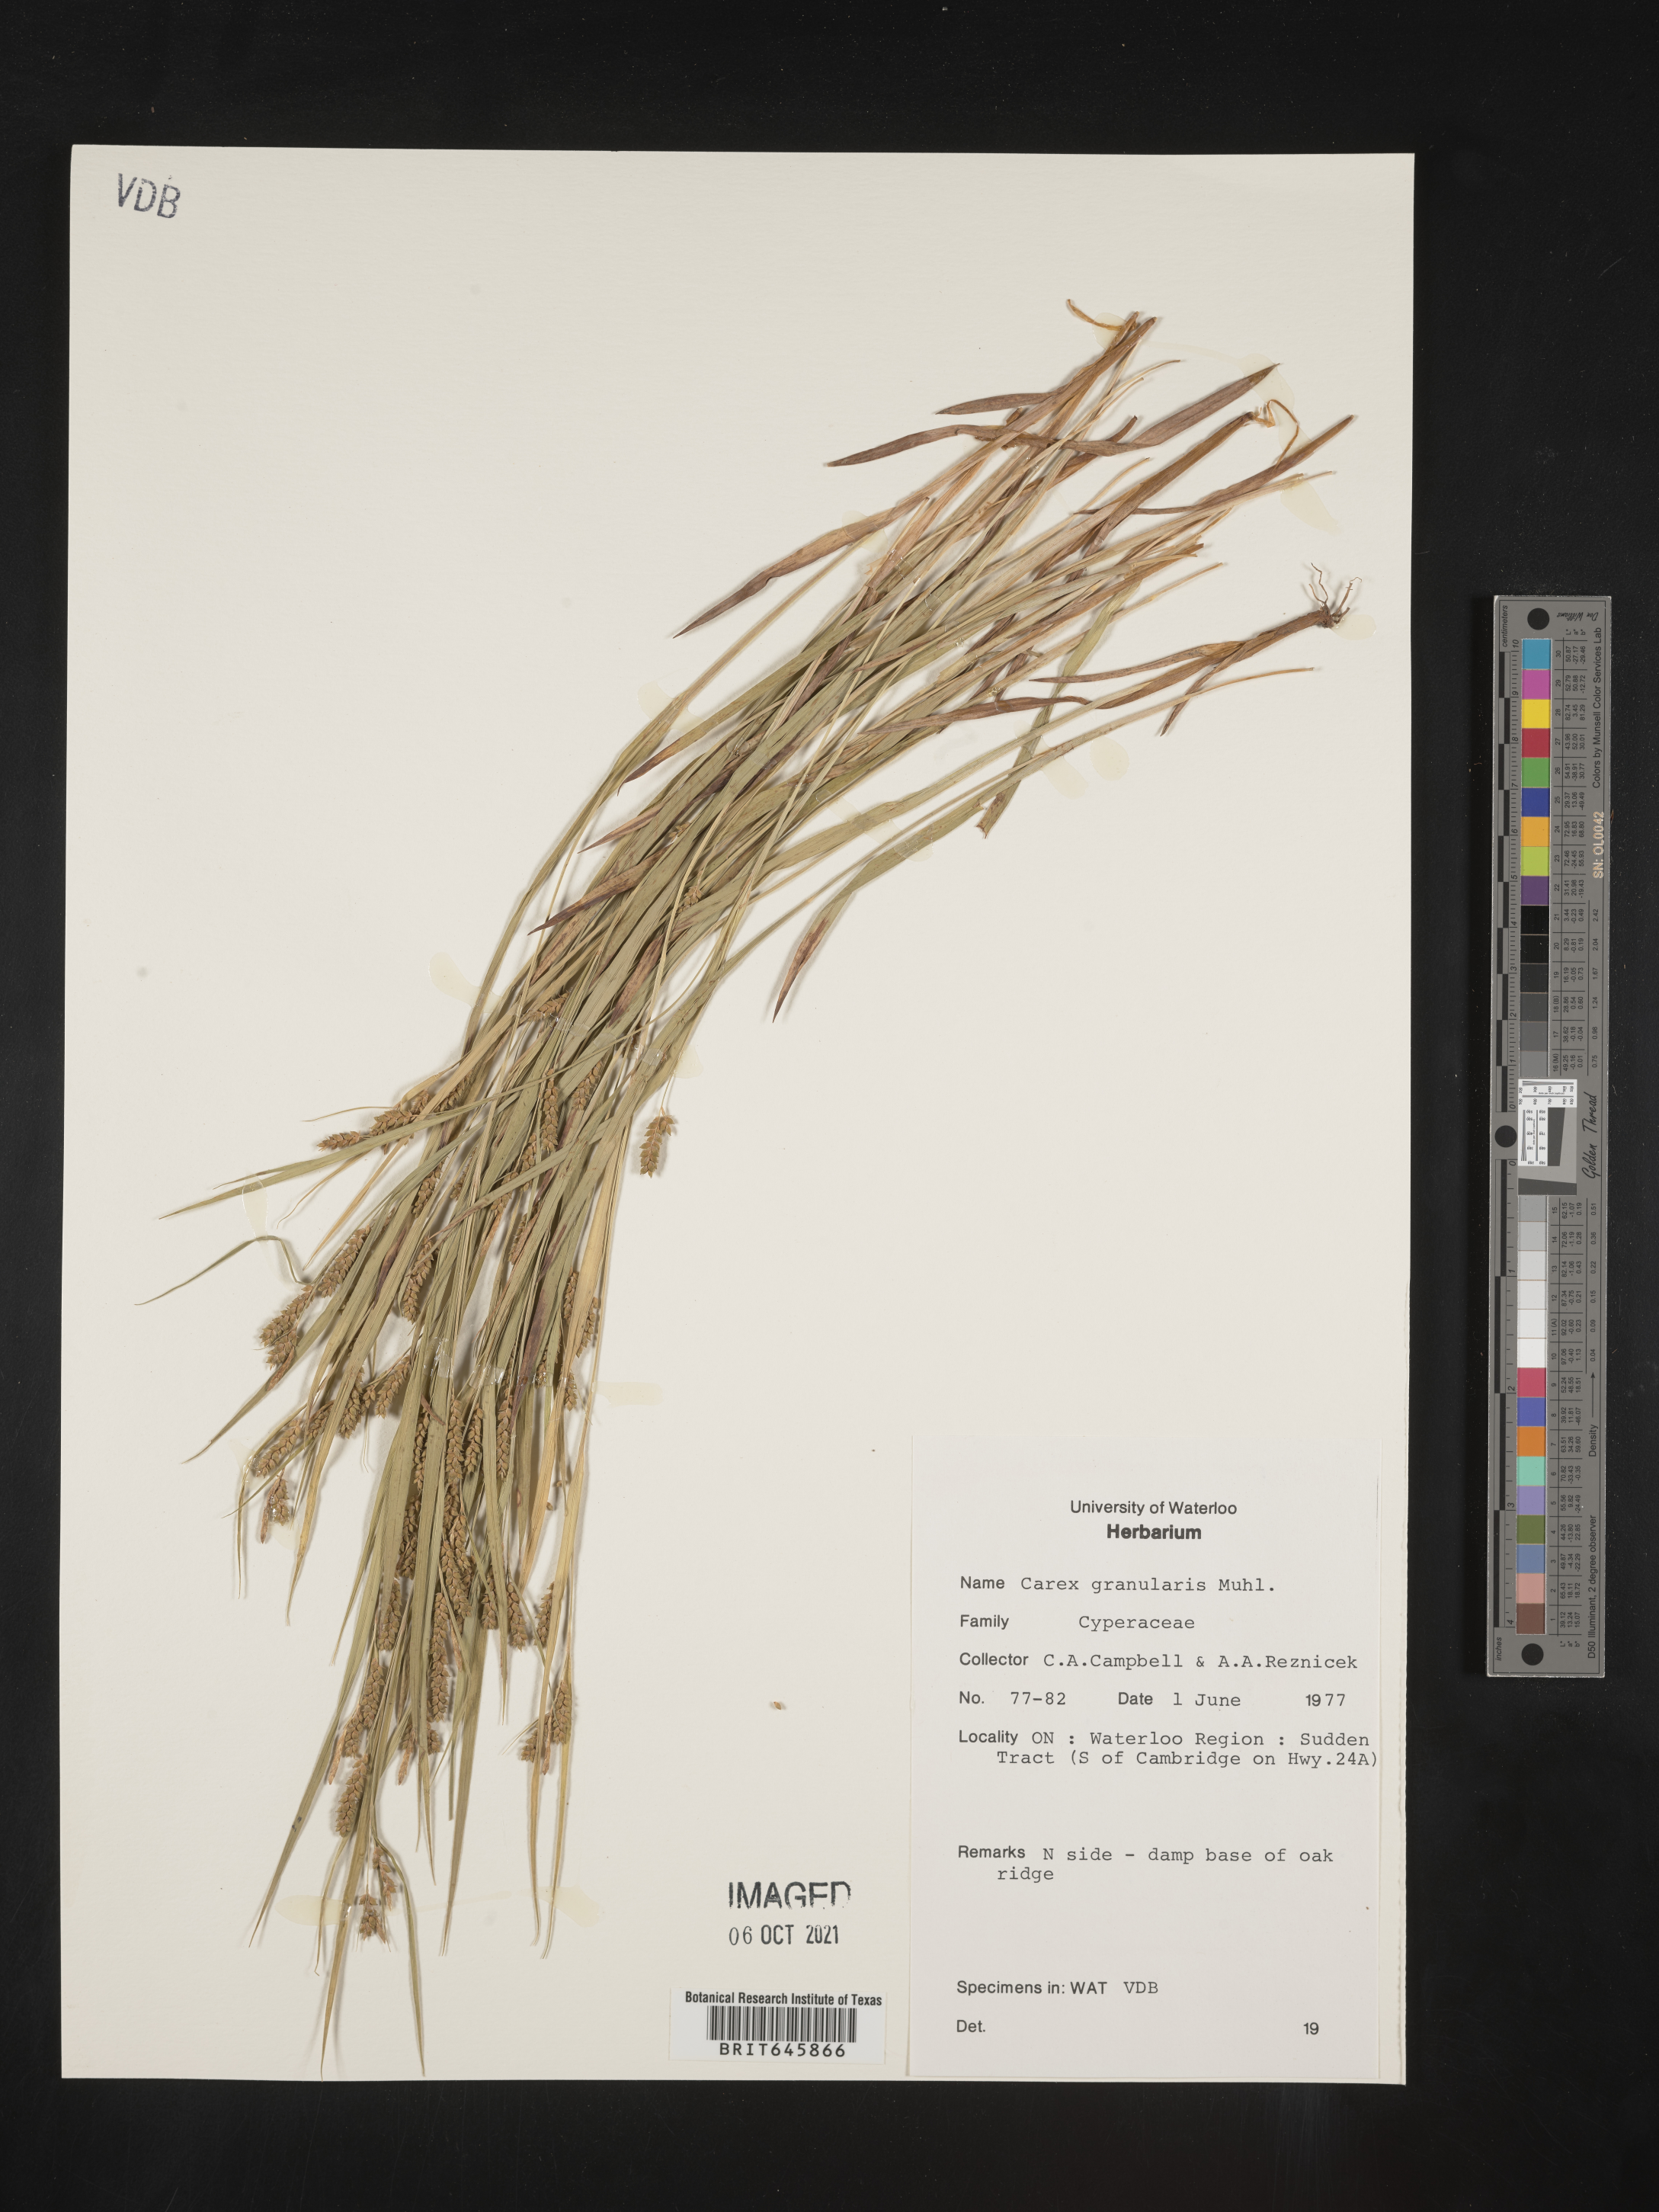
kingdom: Plantae
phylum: Tracheophyta
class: Liliopsida
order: Poales
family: Cyperaceae
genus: Carex
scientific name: Carex granularis
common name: Granular sedge
